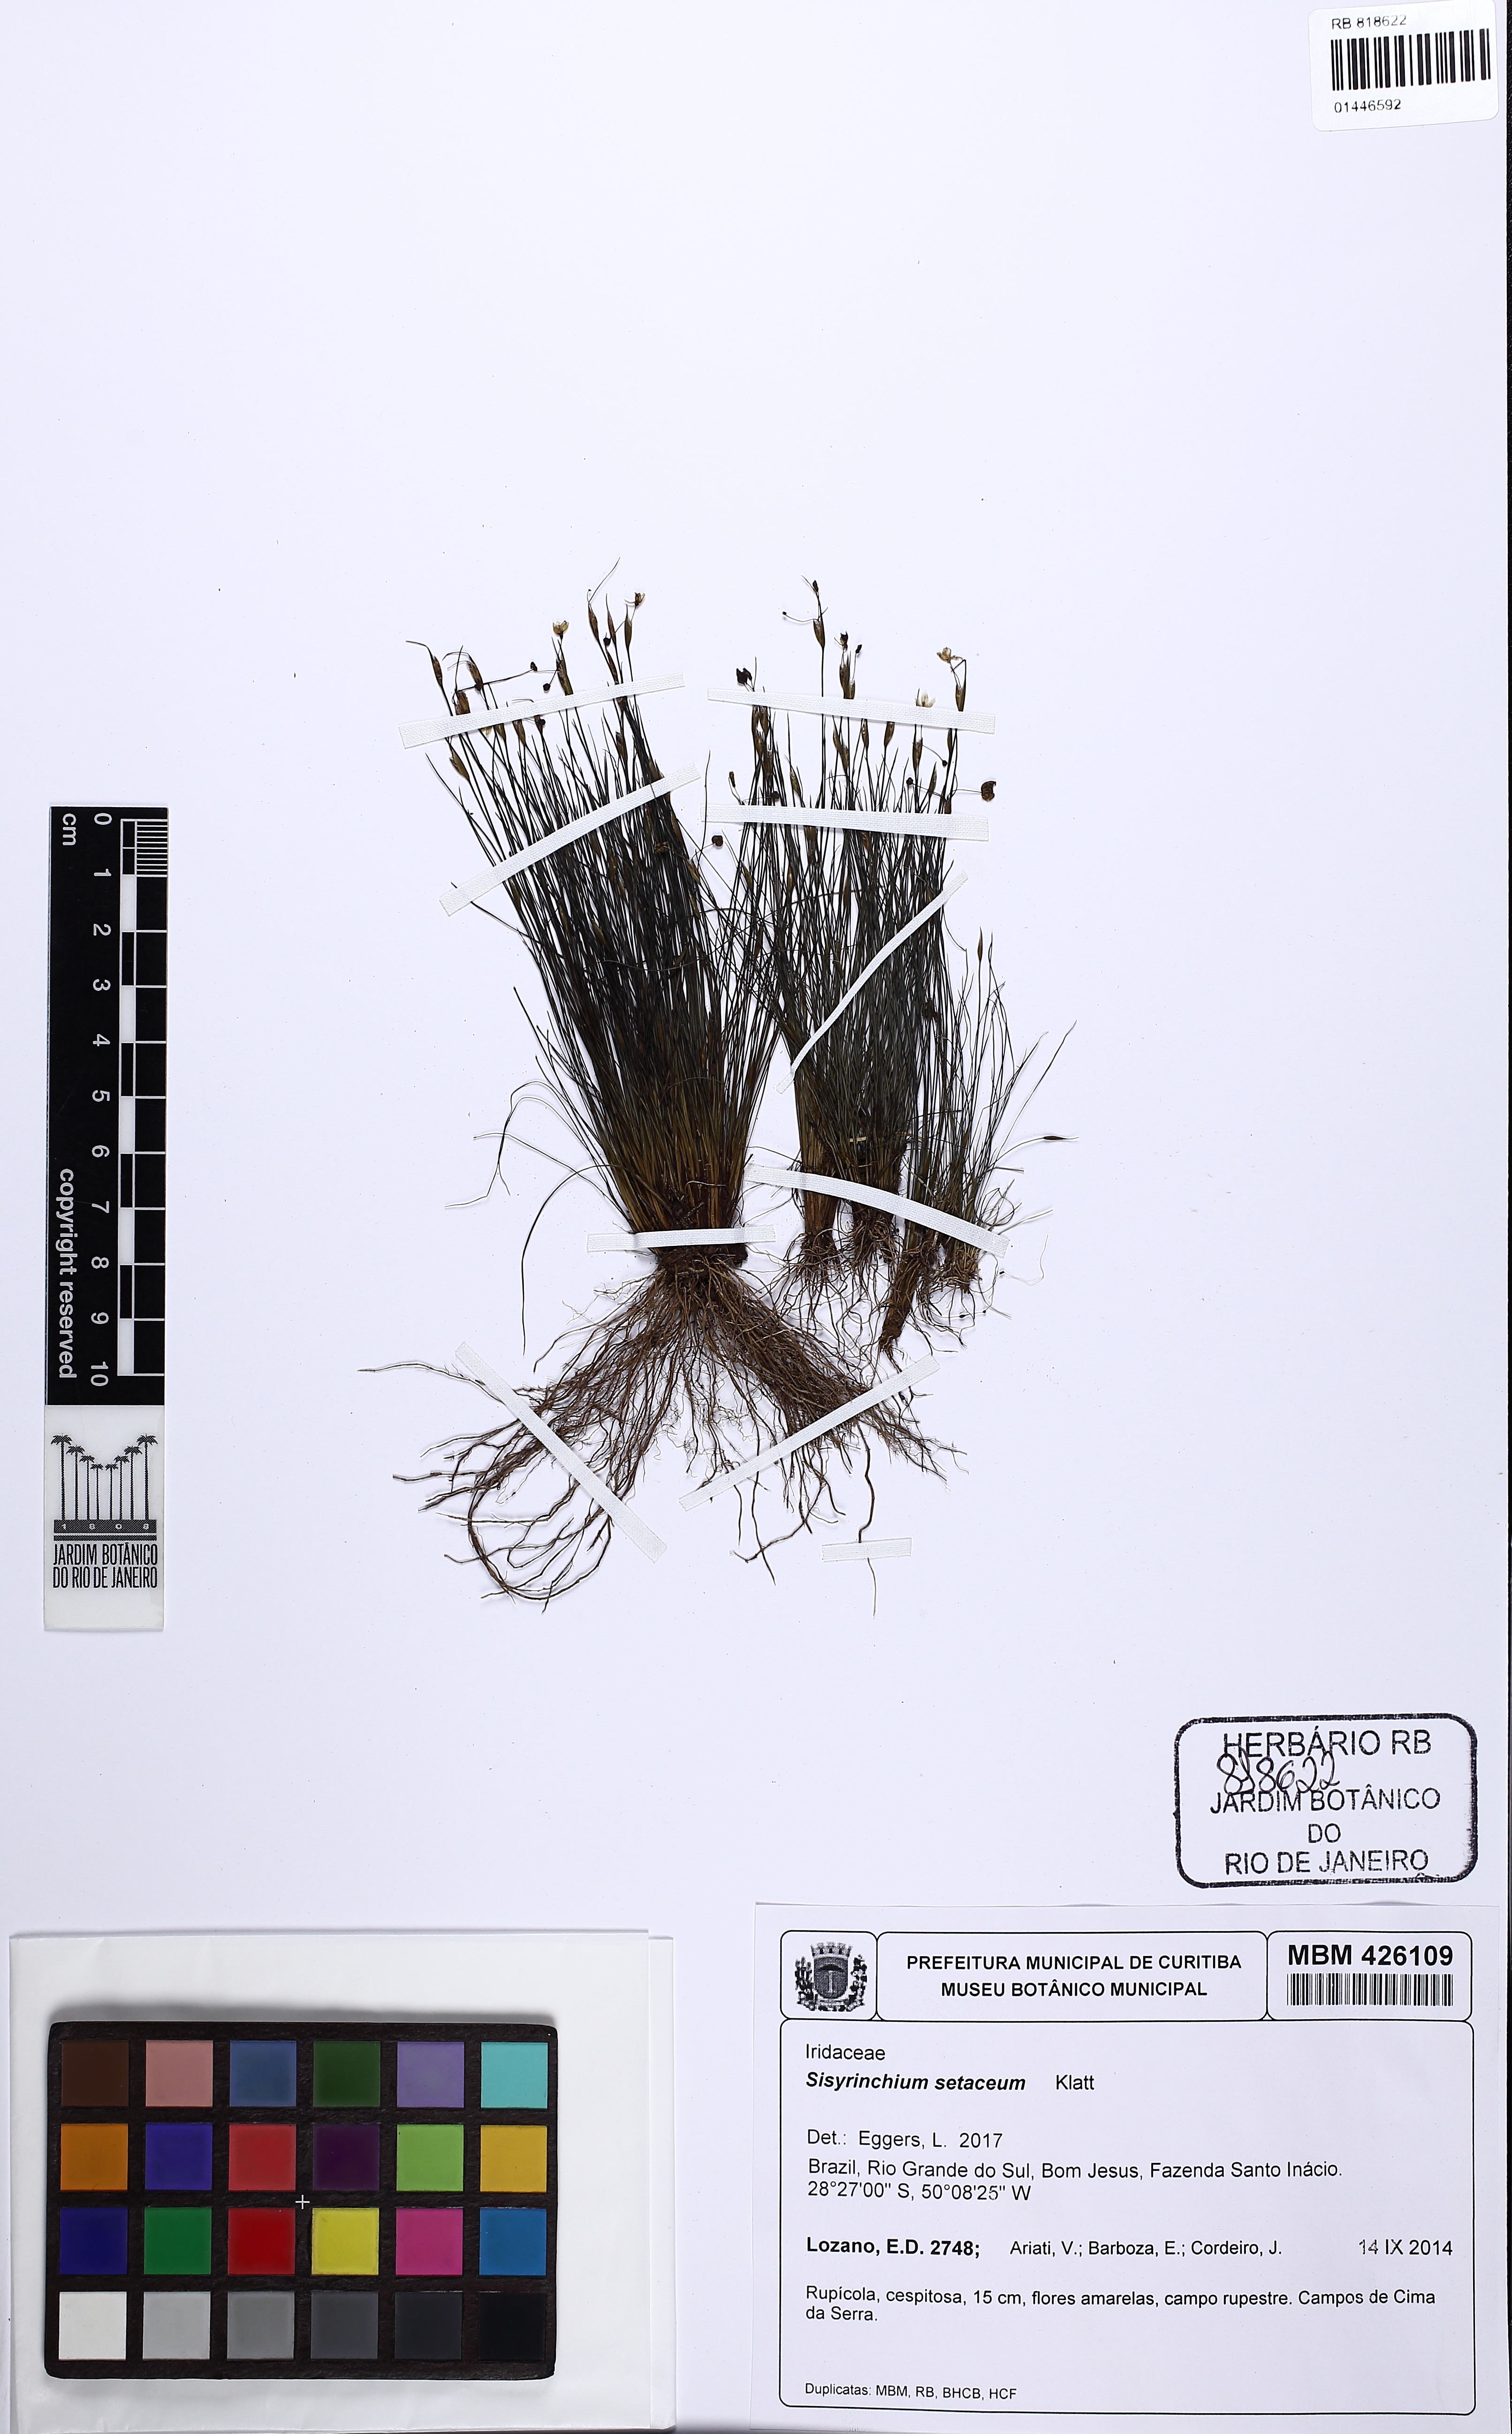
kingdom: Plantae
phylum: Tracheophyta
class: Liliopsida
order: Asparagales
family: Iridaceae
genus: Sisyrinchium
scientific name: Sisyrinchium setaceum
